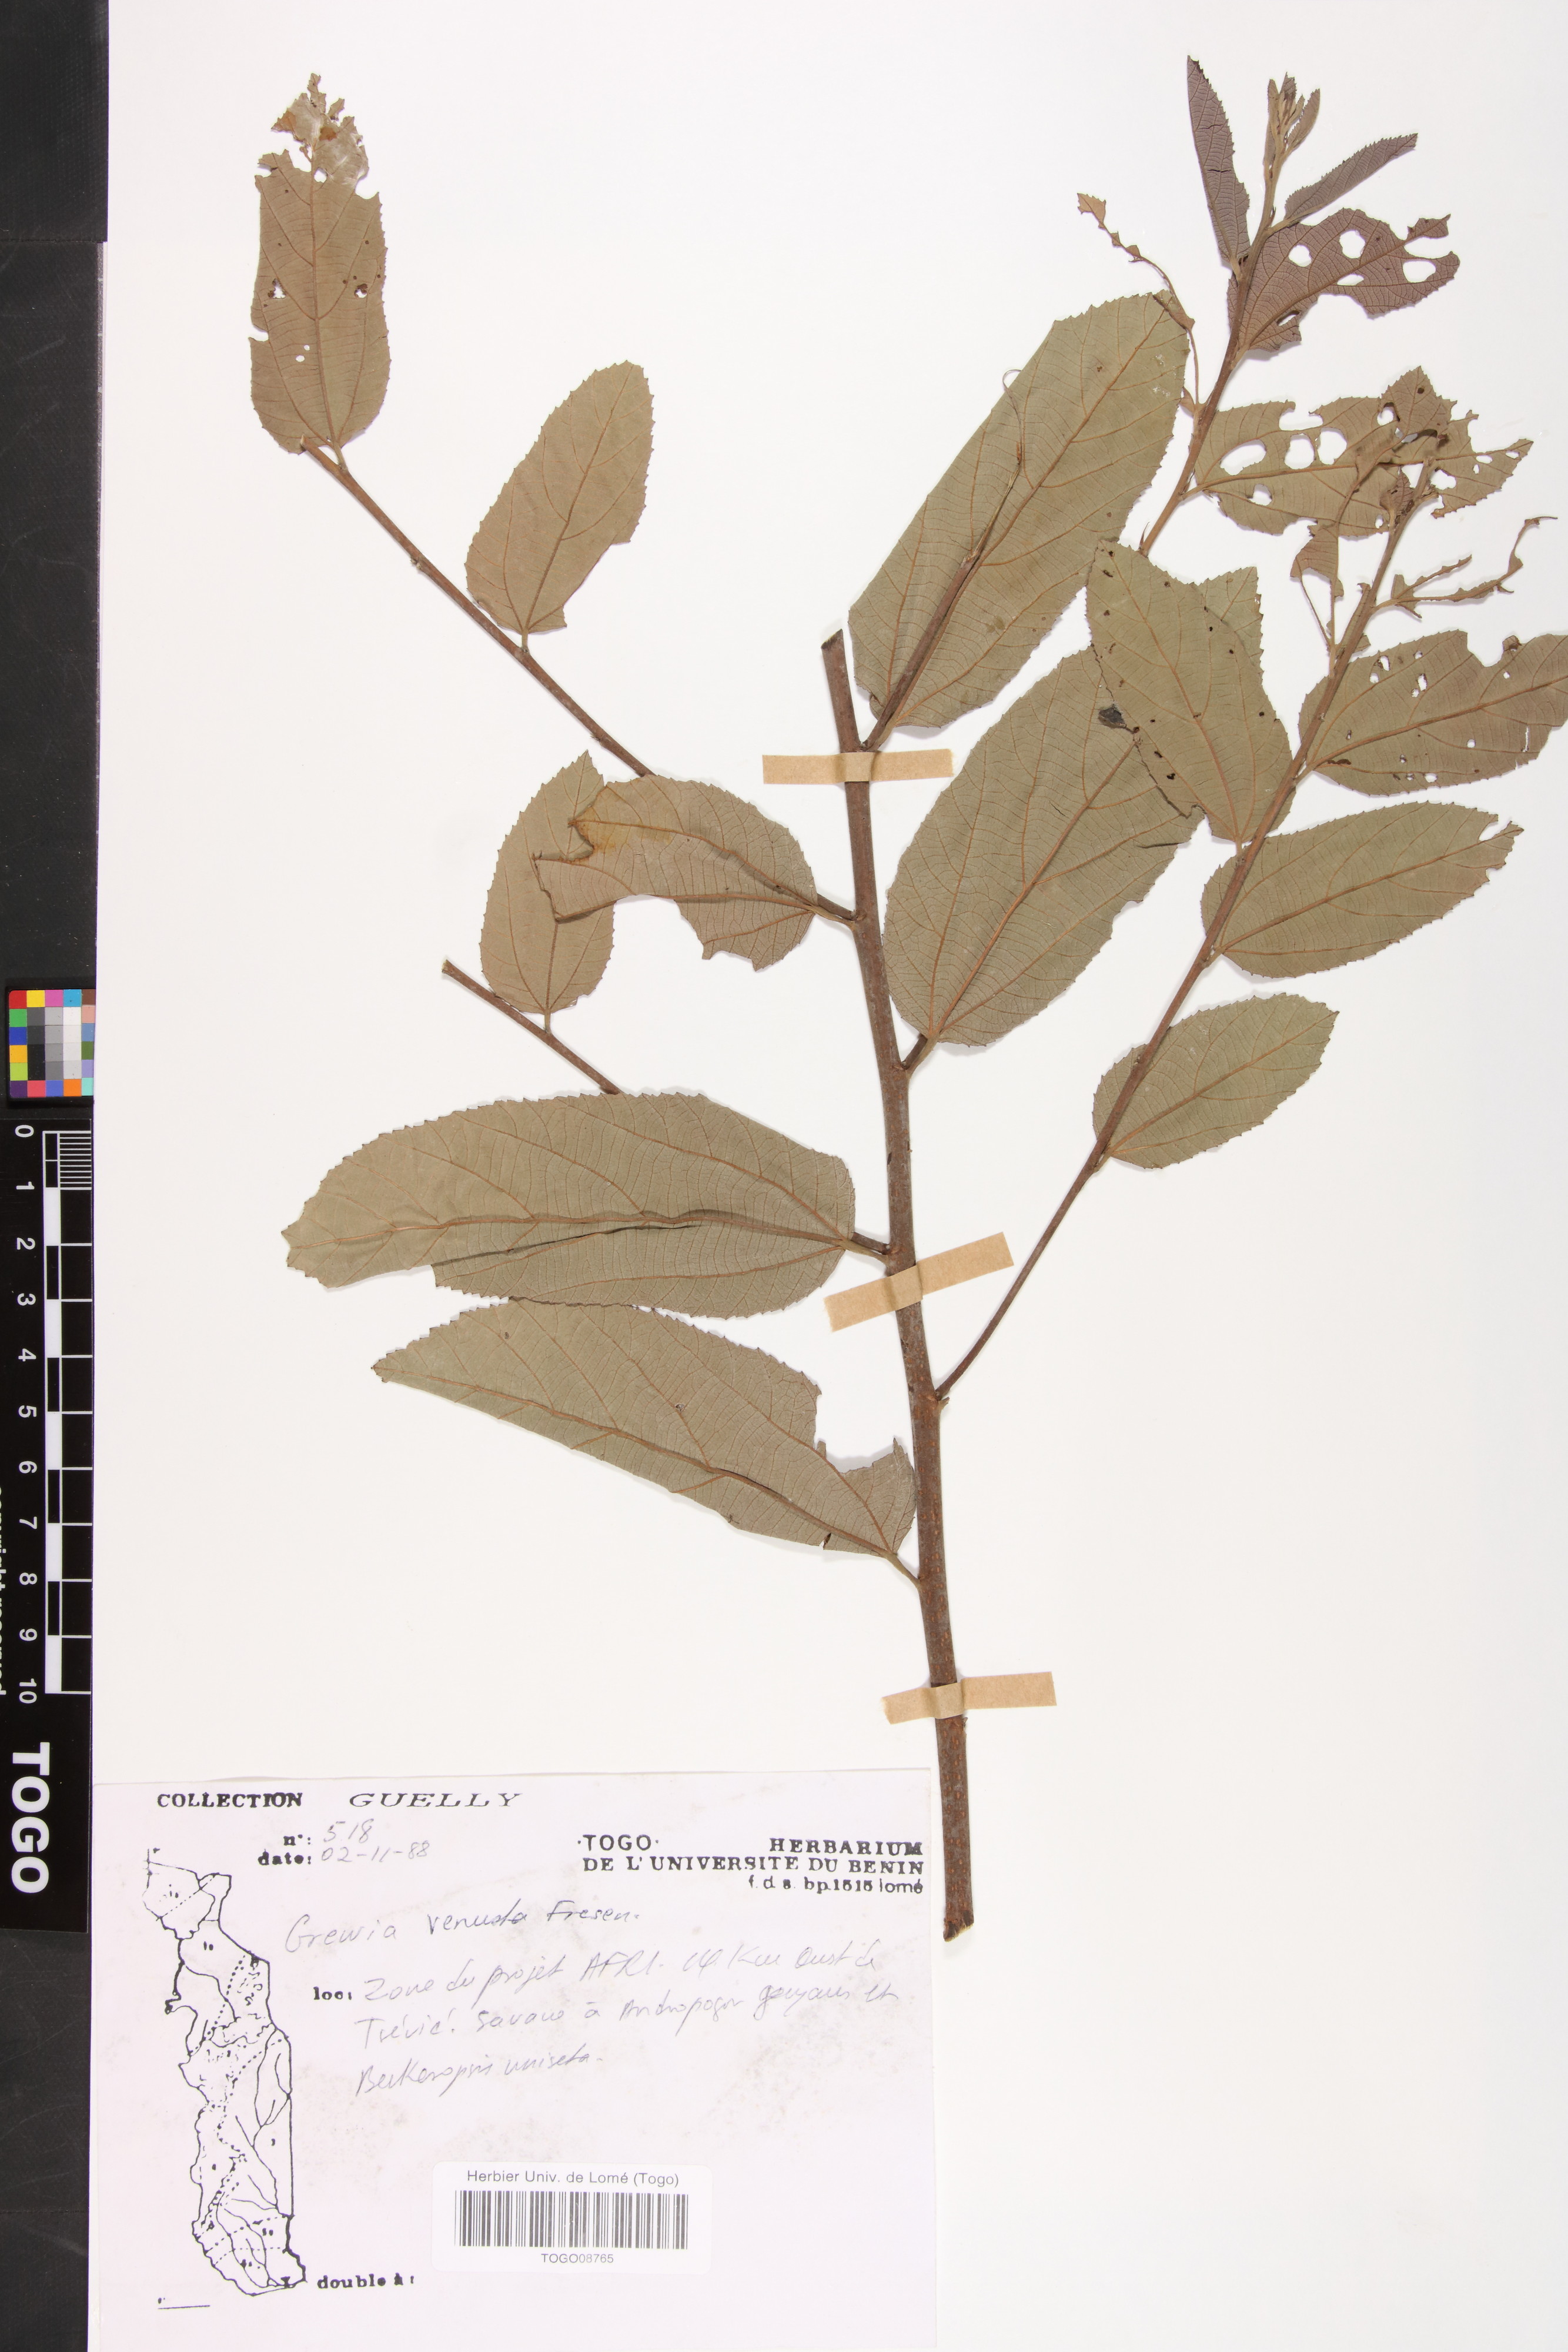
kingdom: Plantae
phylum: Tracheophyta
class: Magnoliopsida
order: Malvales
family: Malvaceae
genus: Grewia
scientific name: Grewia mollis
